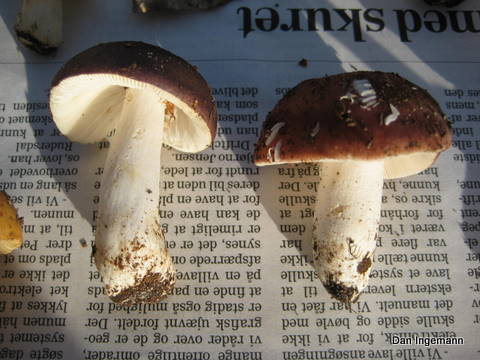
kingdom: Fungi
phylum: Basidiomycota
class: Agaricomycetes
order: Russulales
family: Russulaceae
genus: Russula
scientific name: Russula cyanoxantha
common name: broget skørhat
